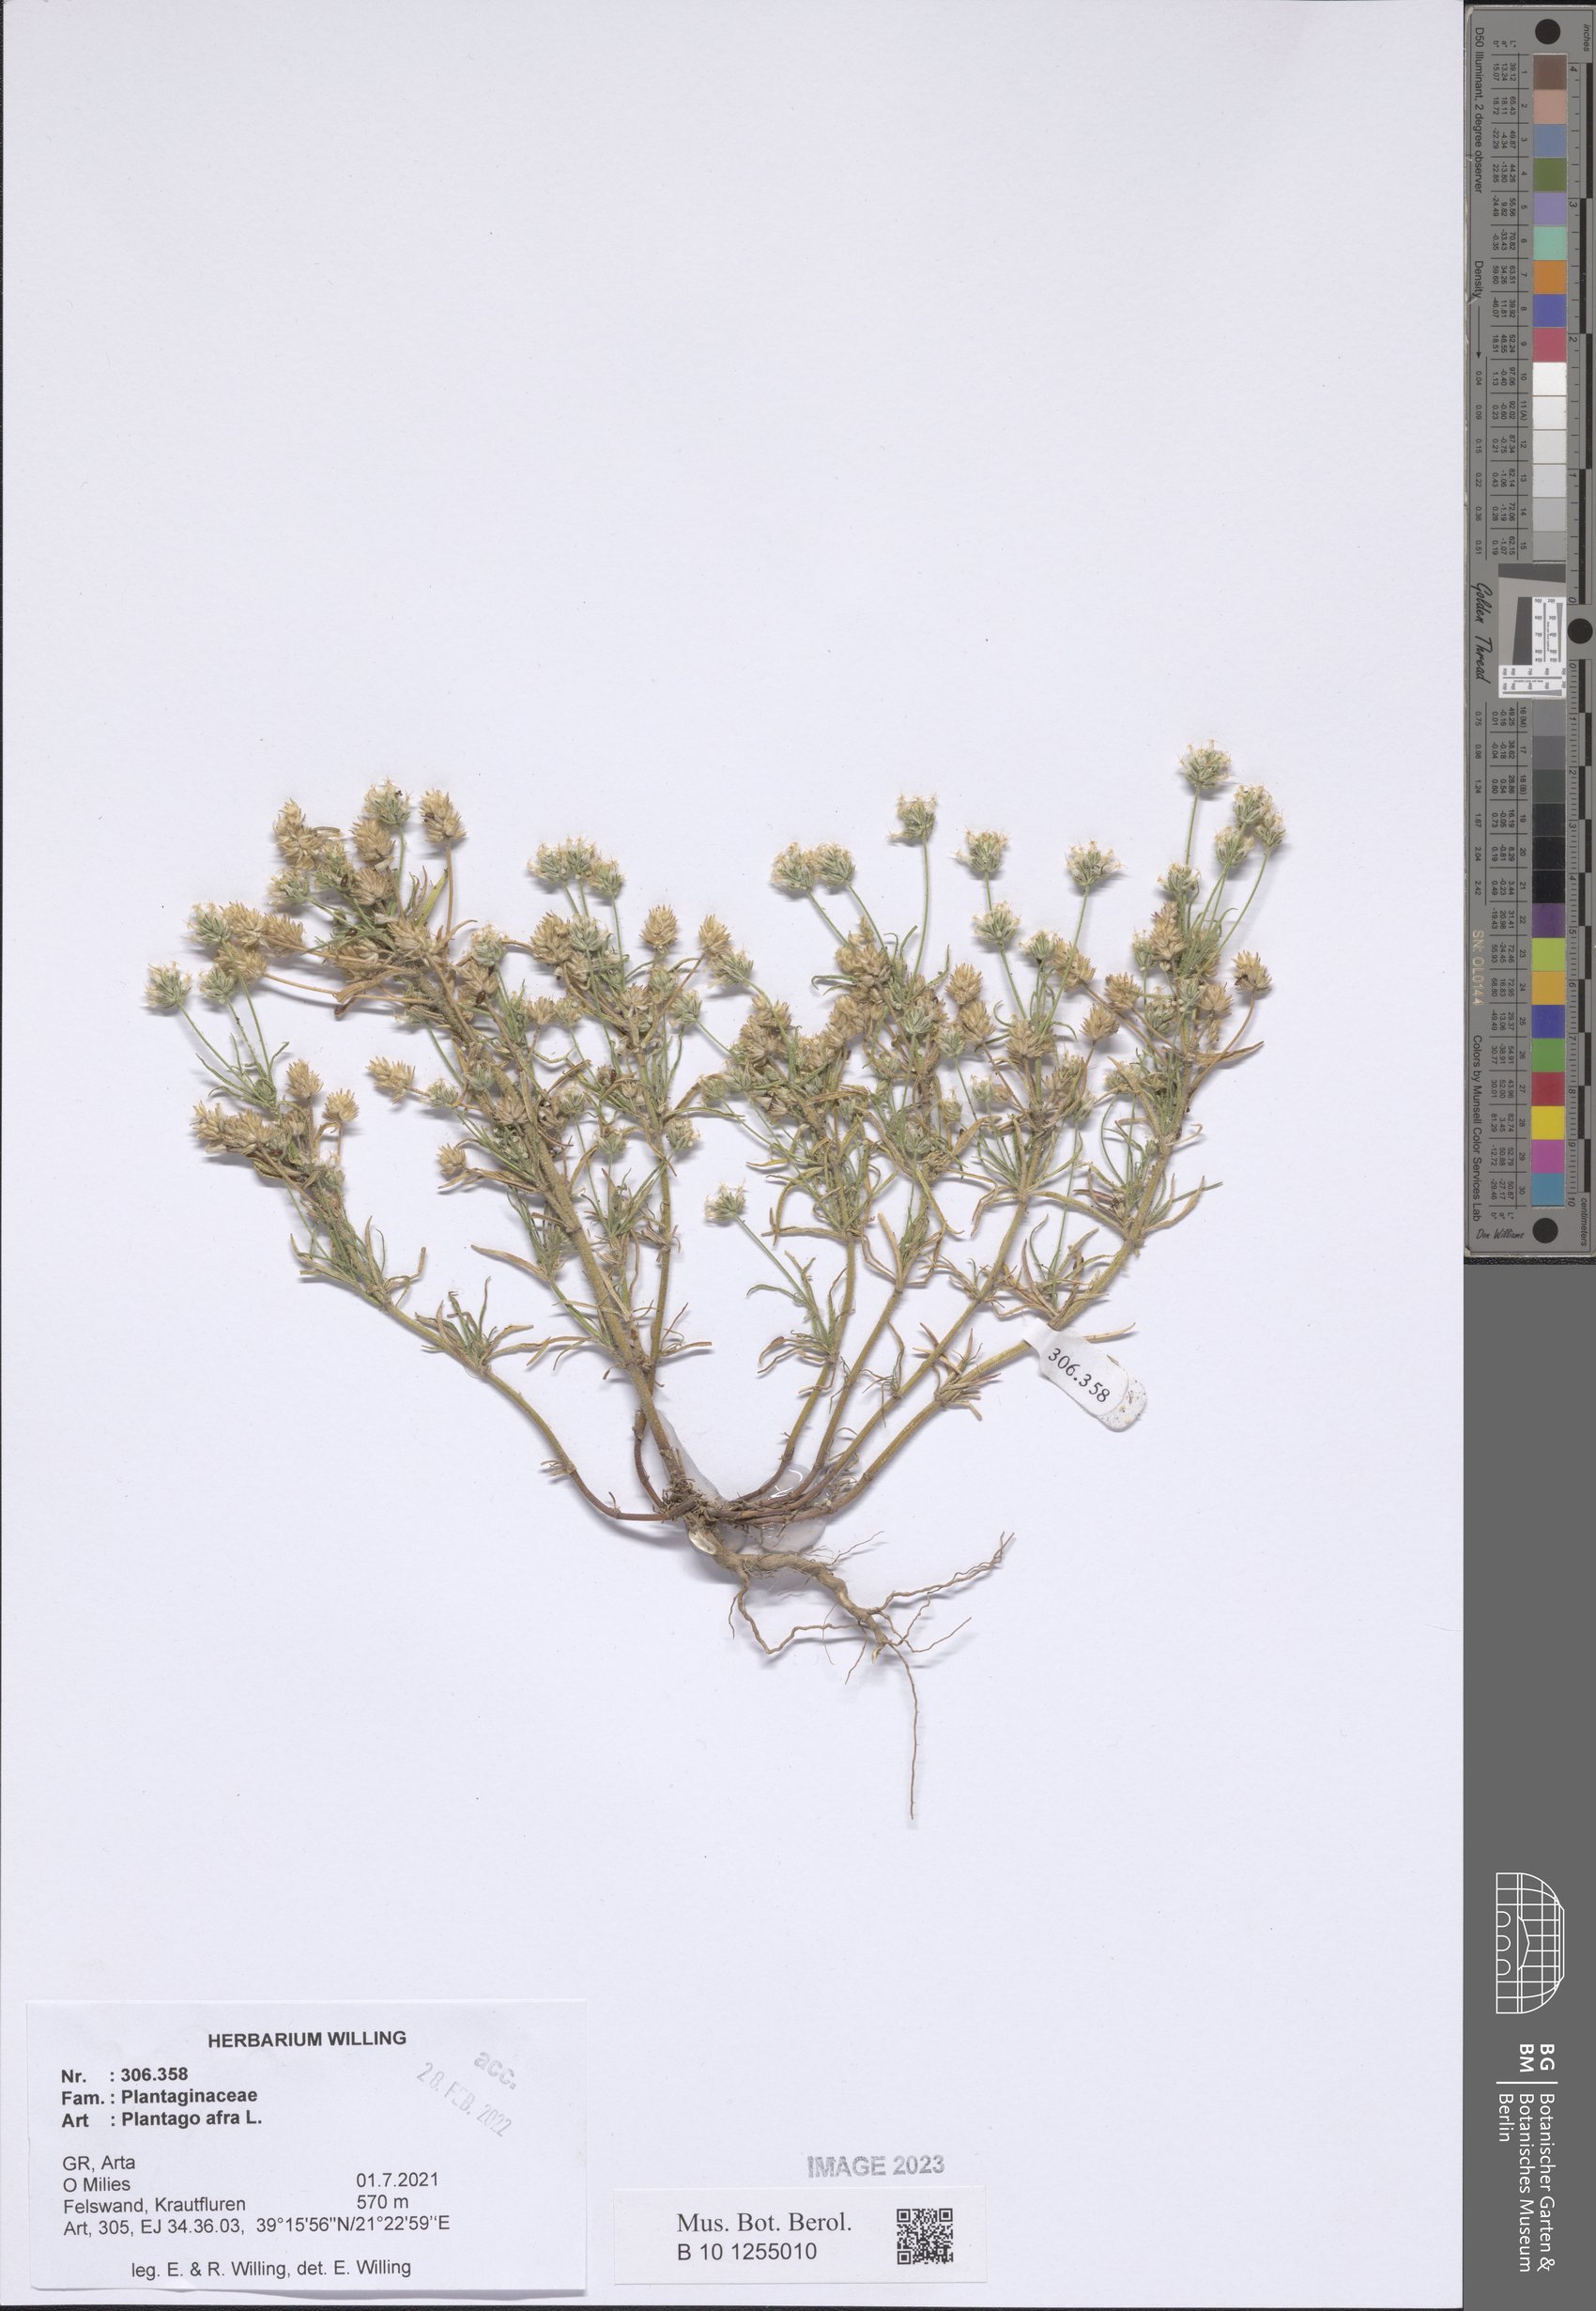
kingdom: Plantae
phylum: Tracheophyta
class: Magnoliopsida
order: Lamiales
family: Plantaginaceae
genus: Plantago
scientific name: Plantago afra
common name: Glandular plantain
